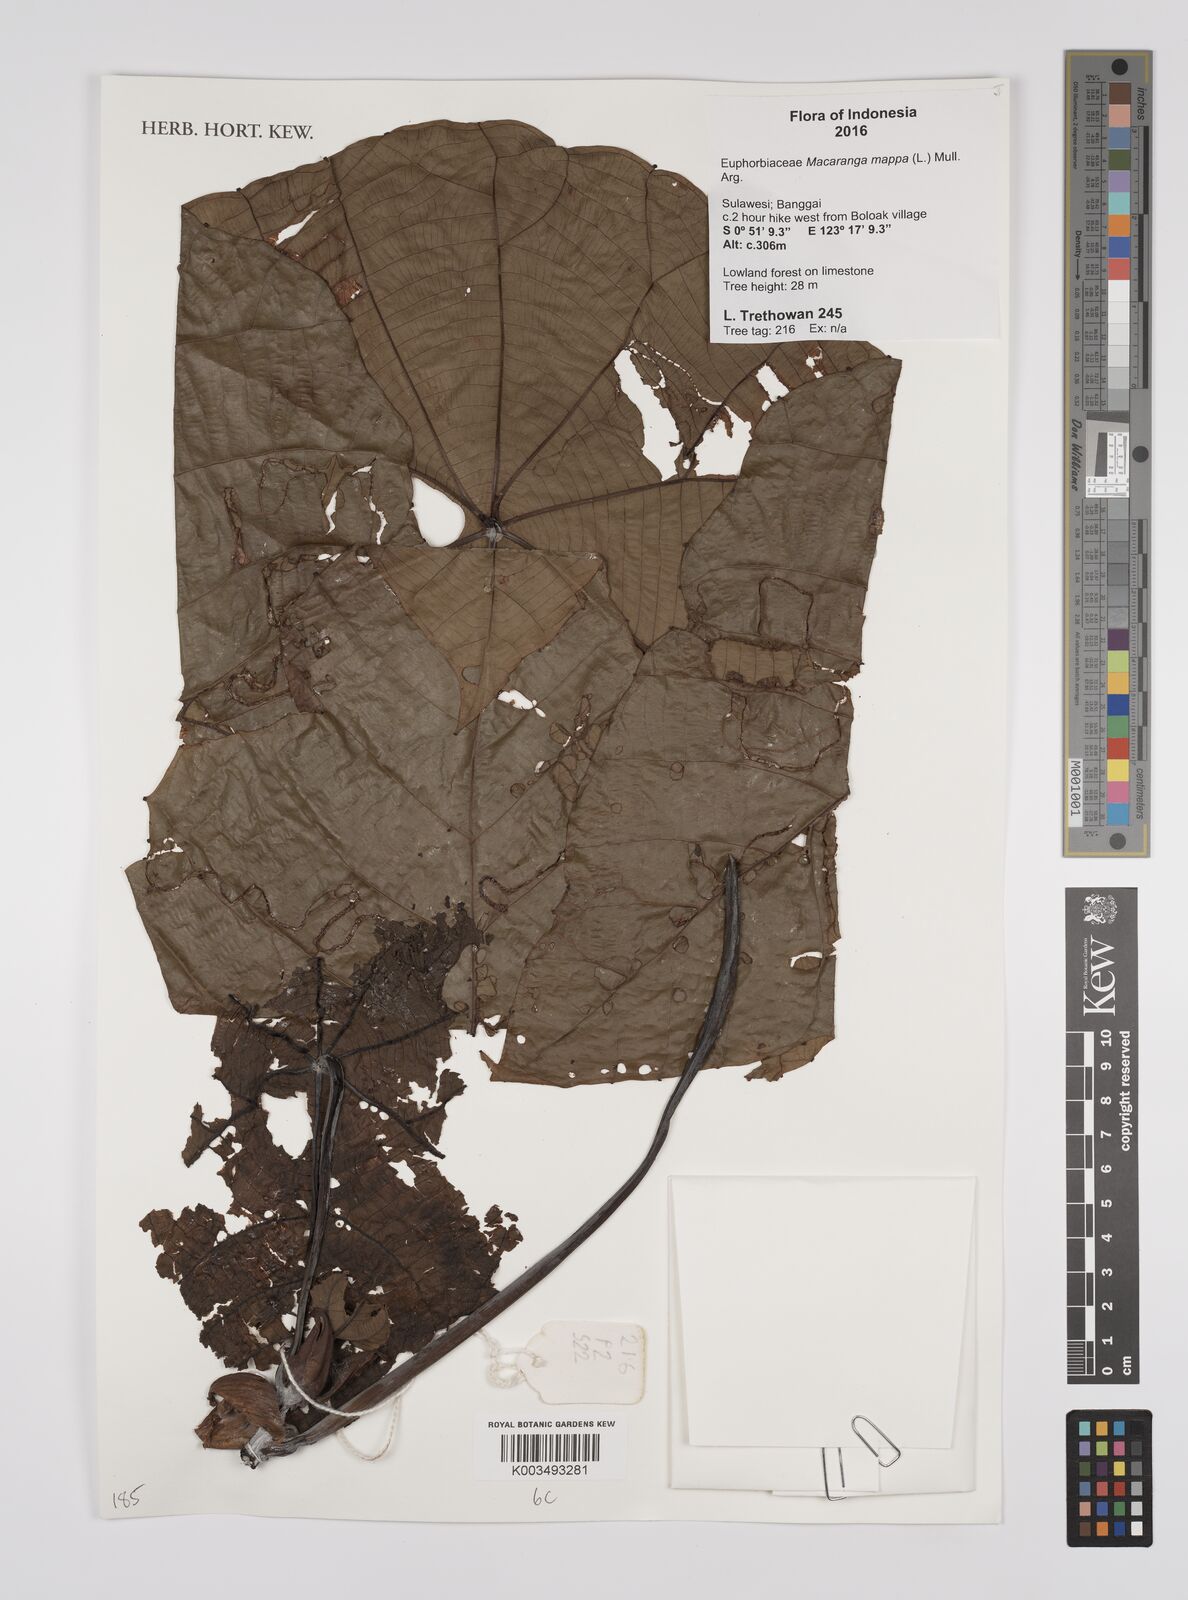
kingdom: Plantae
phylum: Tracheophyta
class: Magnoliopsida
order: Malpighiales
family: Euphorbiaceae
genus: Macaranga
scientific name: Macaranga mappa
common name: Pengua
